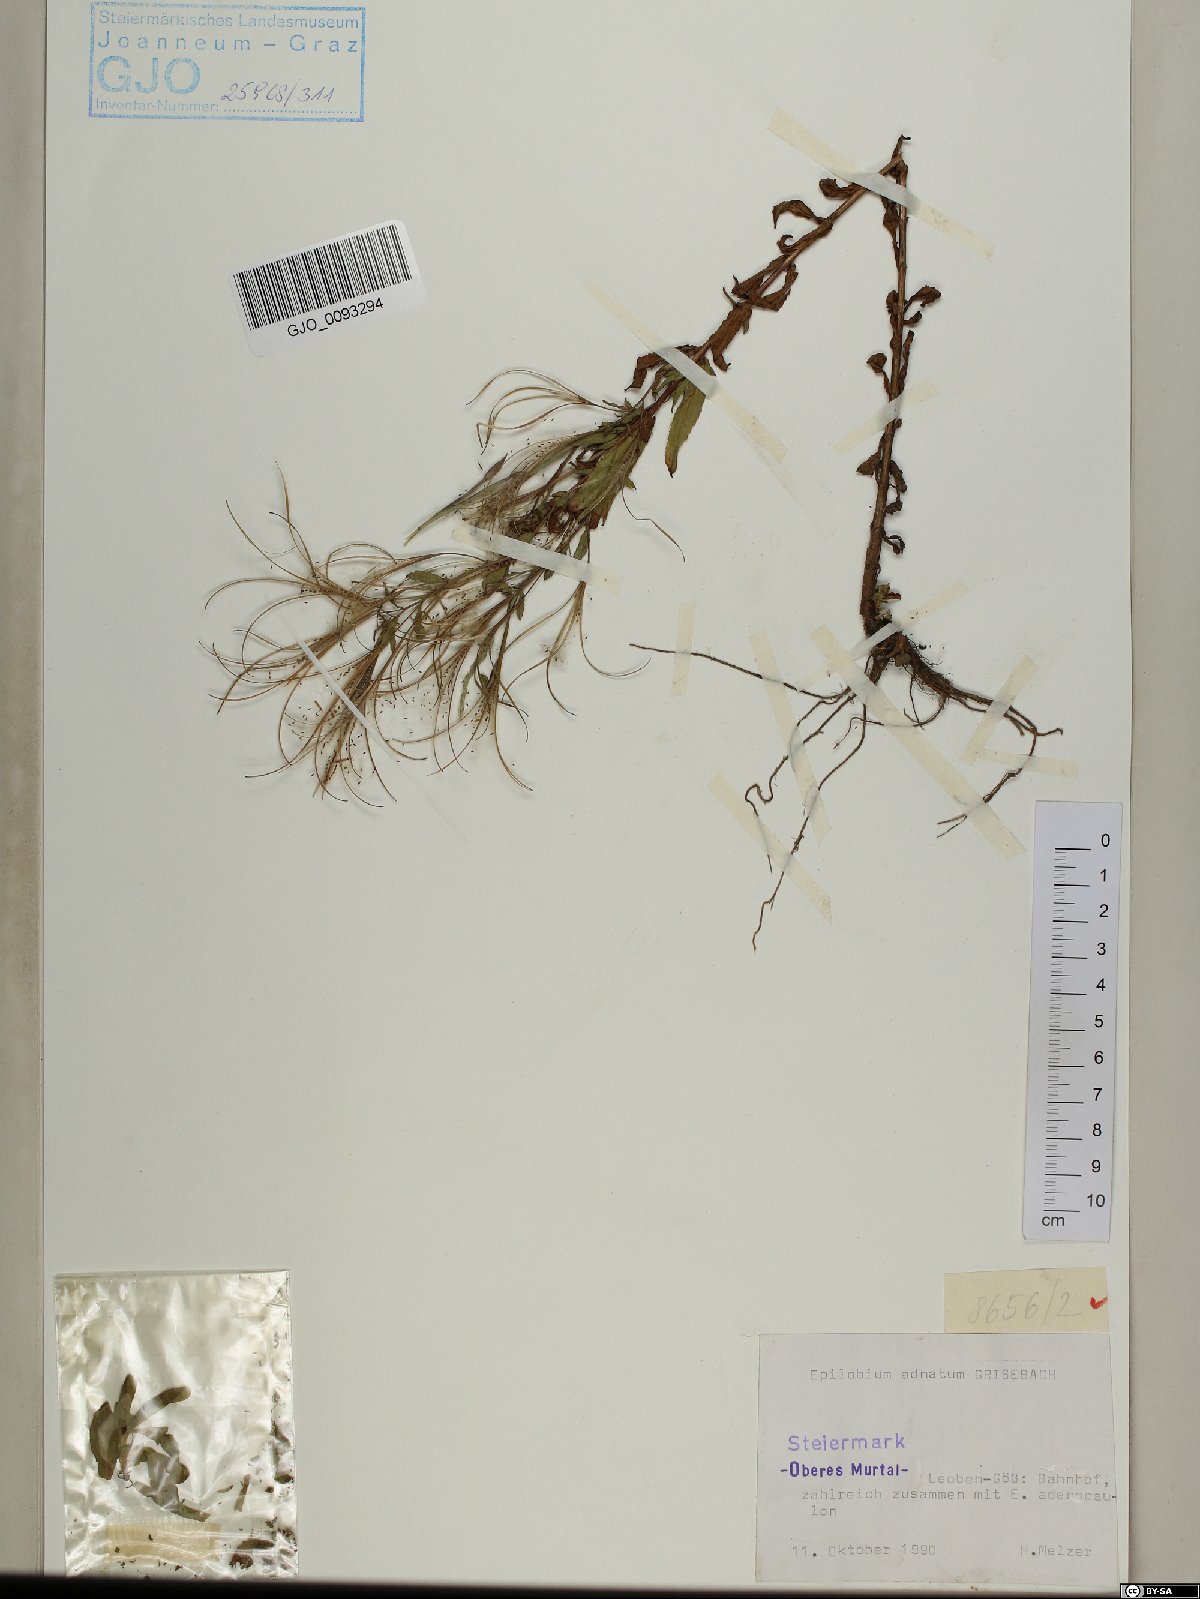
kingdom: Plantae
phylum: Tracheophyta
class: Magnoliopsida
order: Myrtales
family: Onagraceae
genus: Epilobium
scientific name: Epilobium tetragonum
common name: Square-stemmed willowherb
